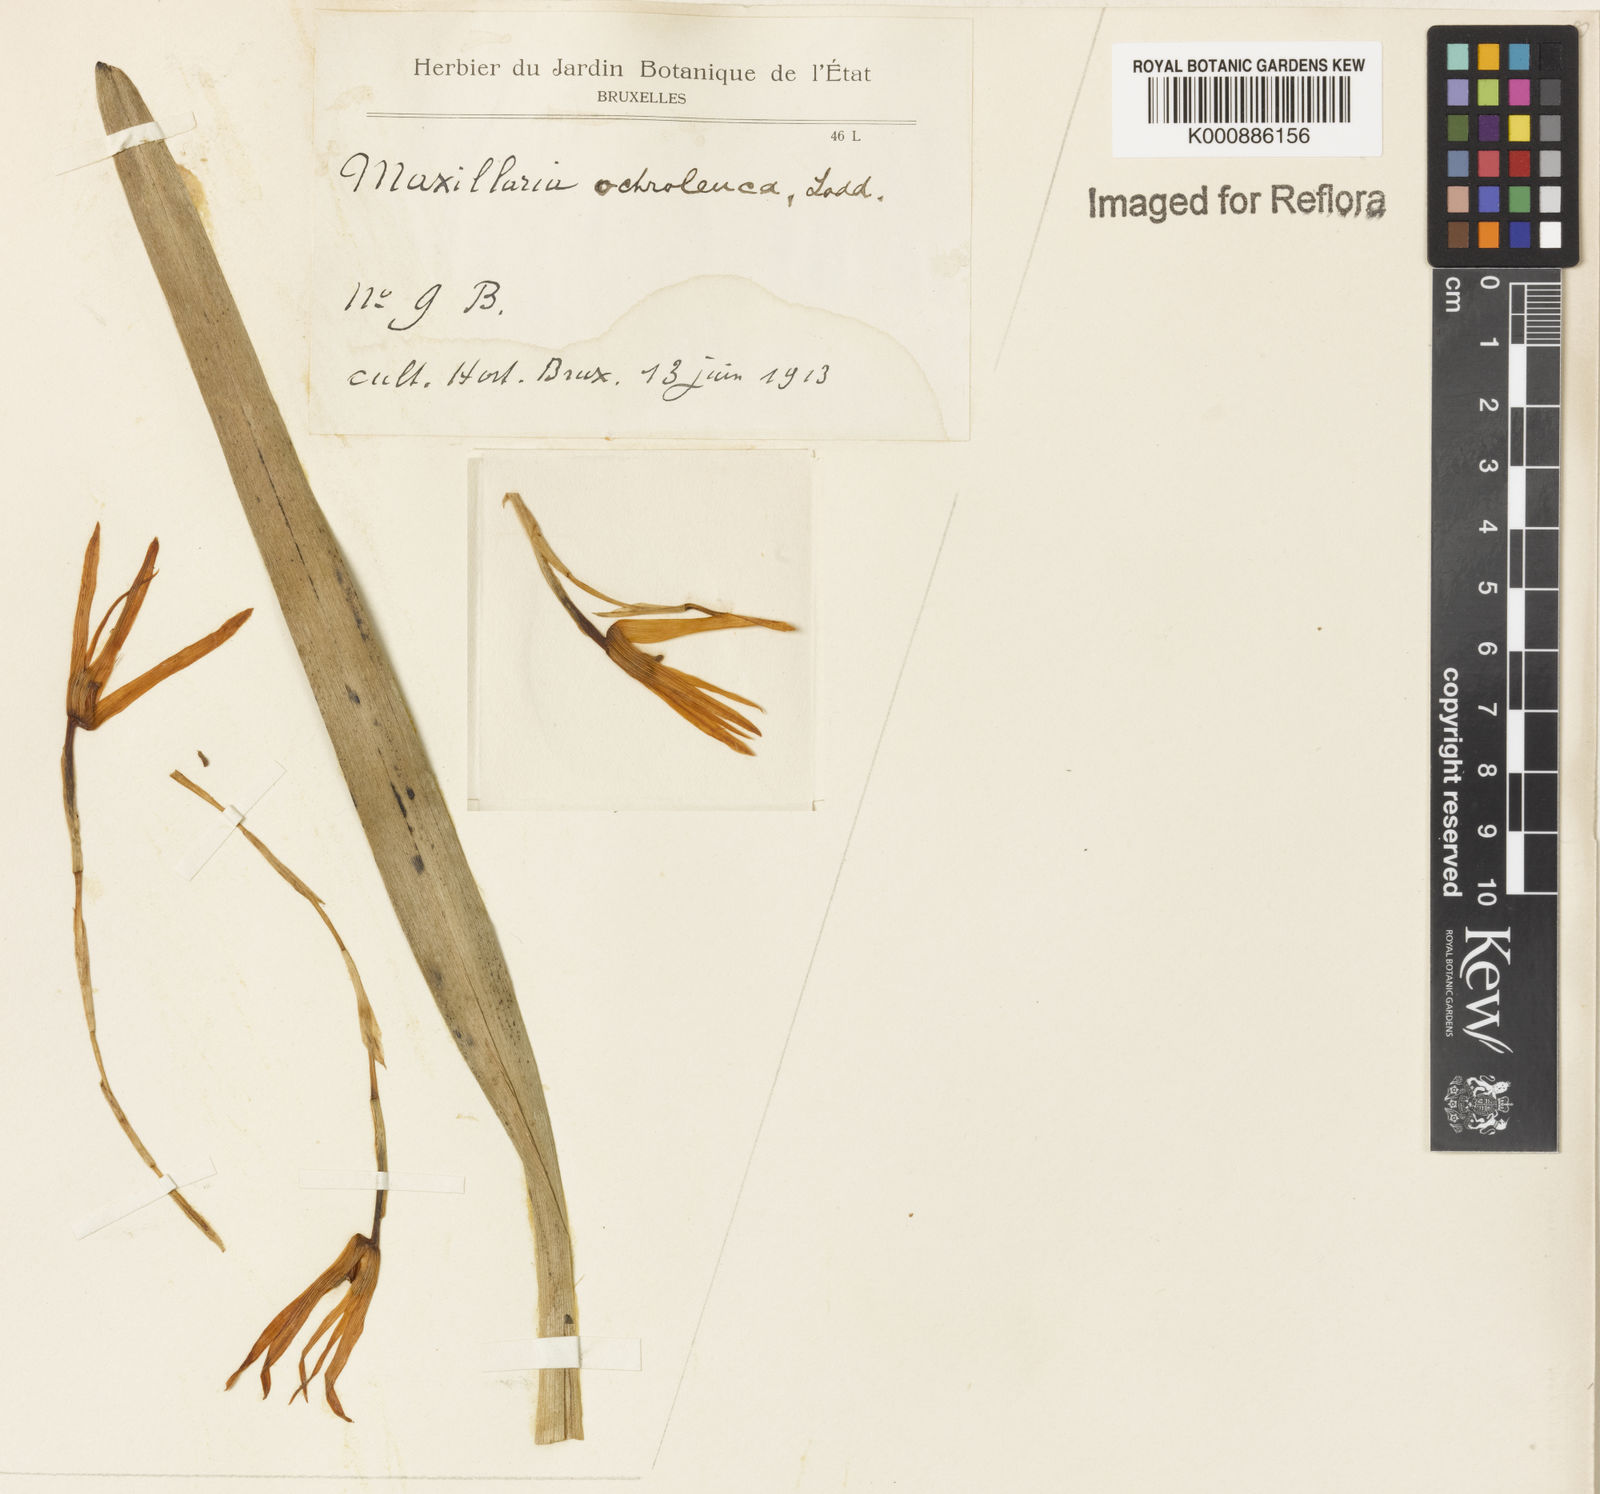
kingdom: Plantae
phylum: Tracheophyta
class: Liliopsida
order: Asparagales
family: Orchidaceae
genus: Maxillaria
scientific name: Maxillaria ochroleuca
